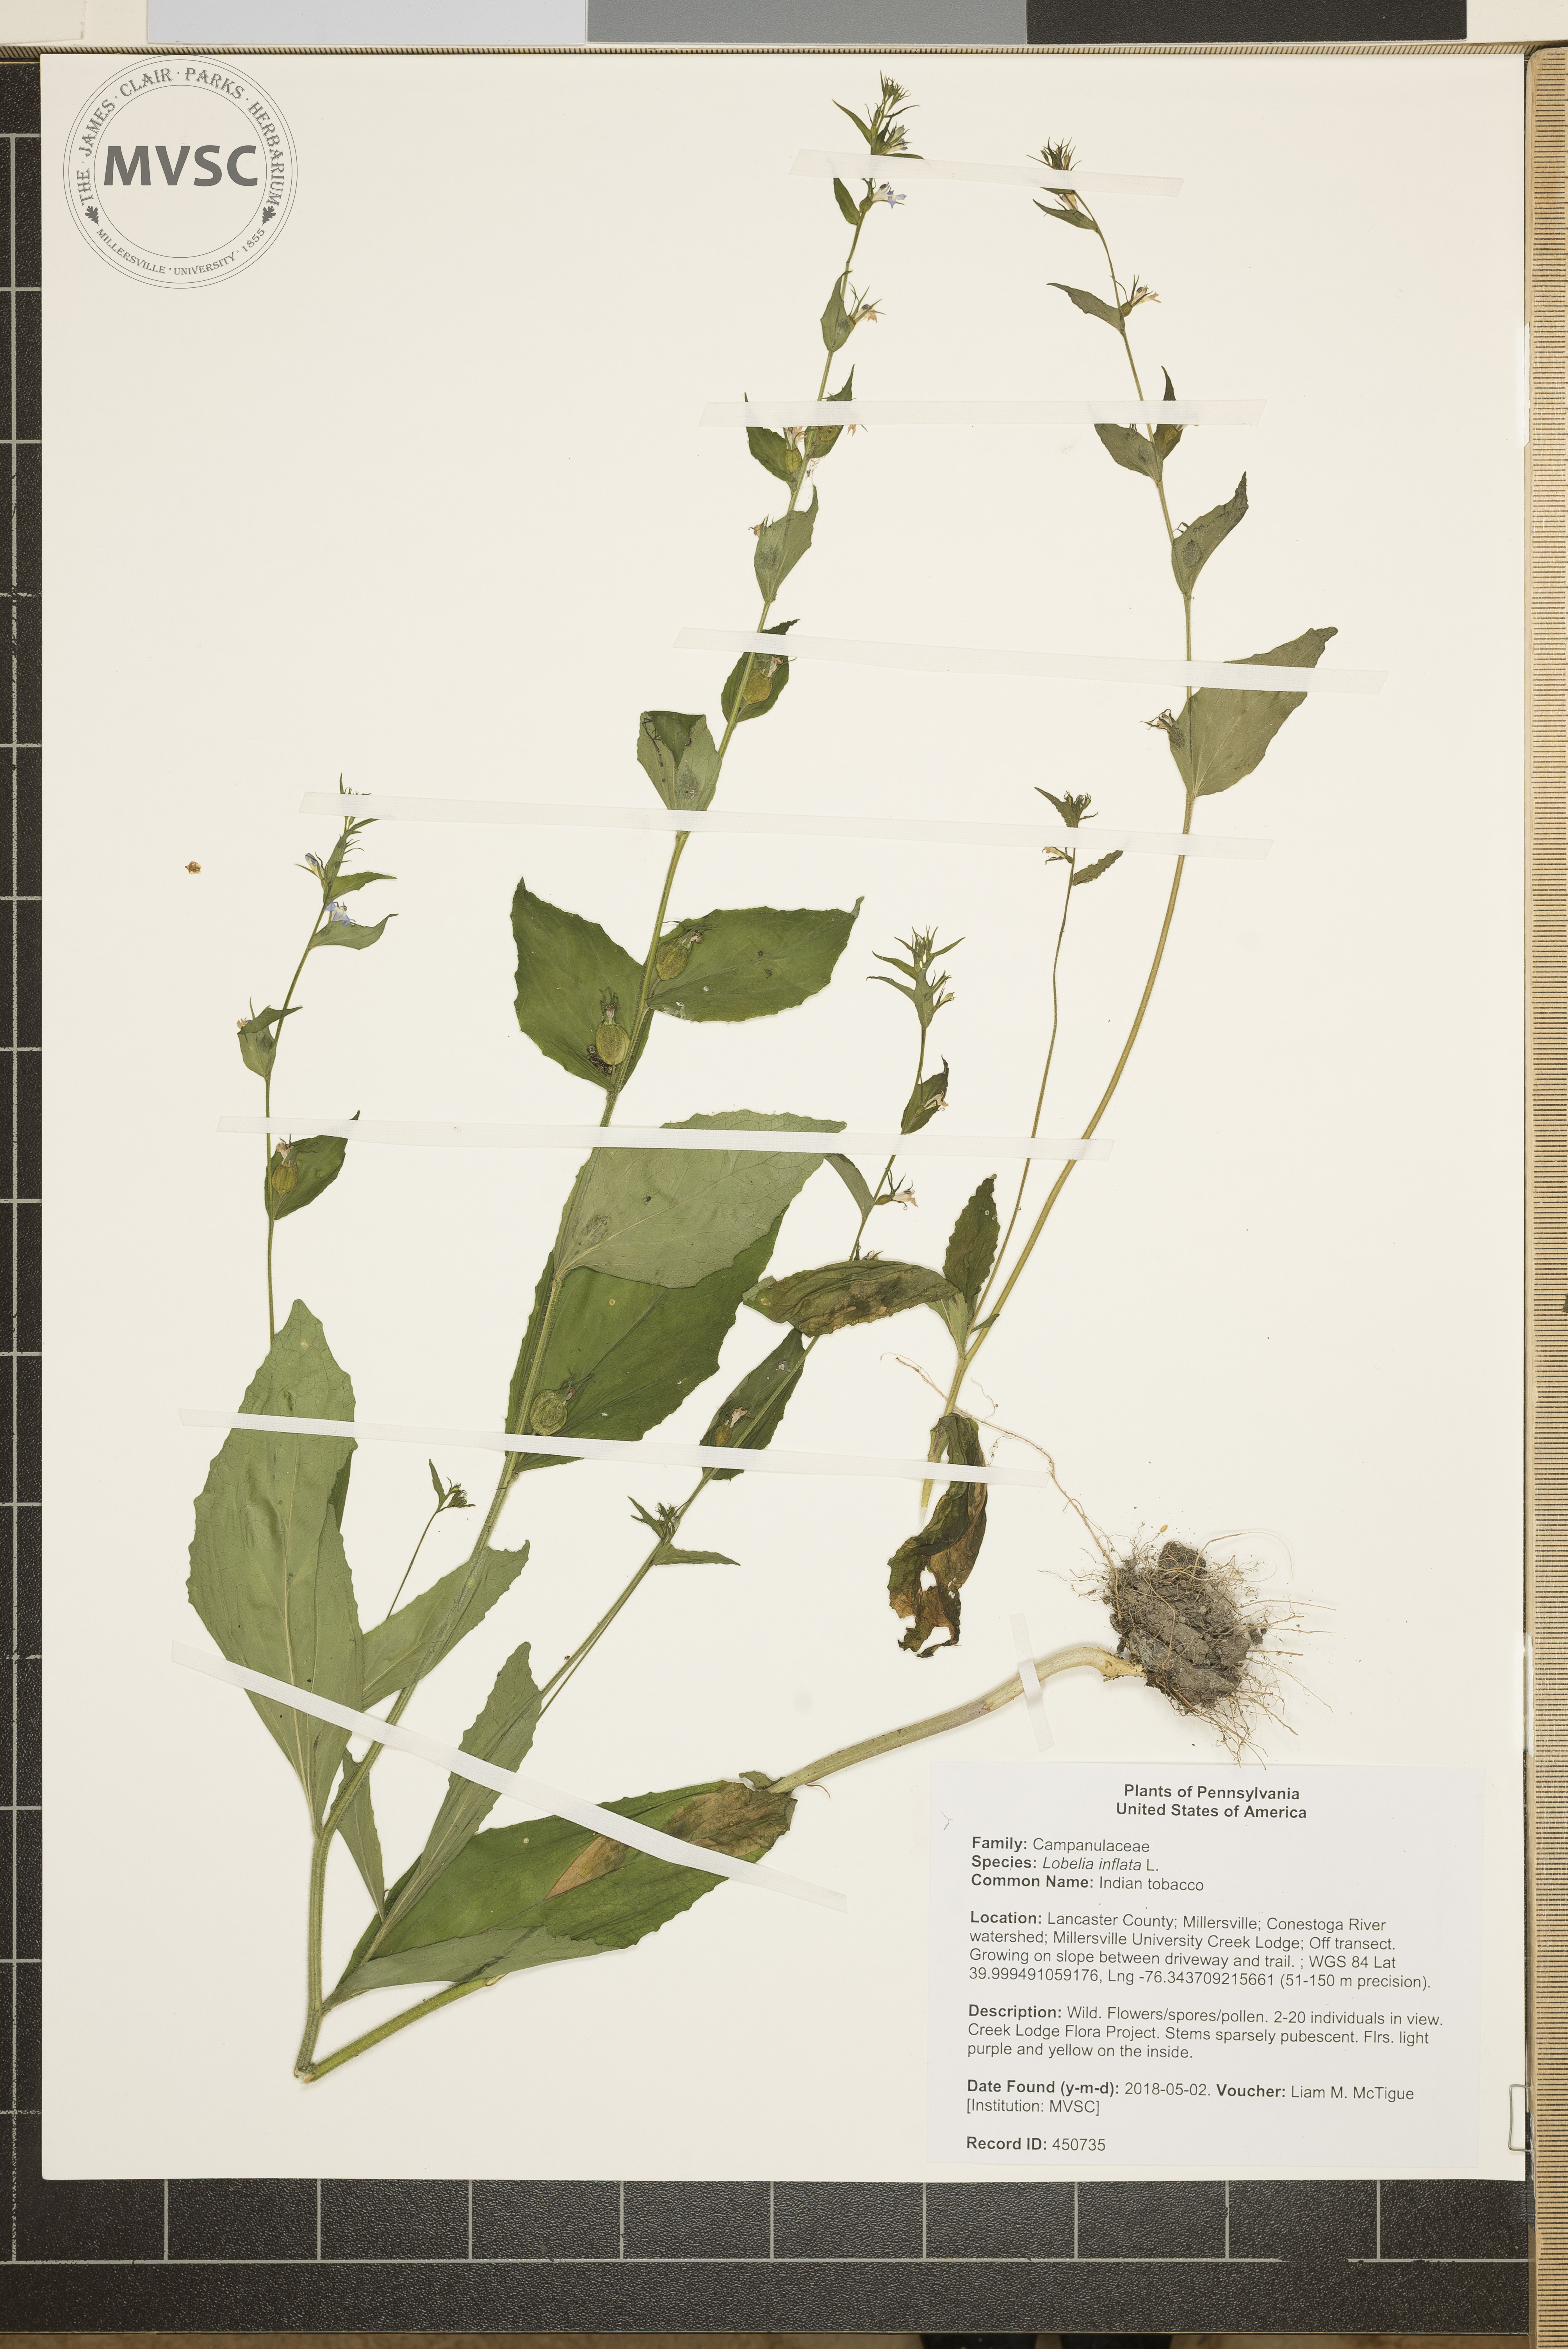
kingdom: Plantae
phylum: Tracheophyta
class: Magnoliopsida
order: Asterales
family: Campanulaceae
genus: Lobelia
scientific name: Lobelia inflata
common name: Indian tobacco
